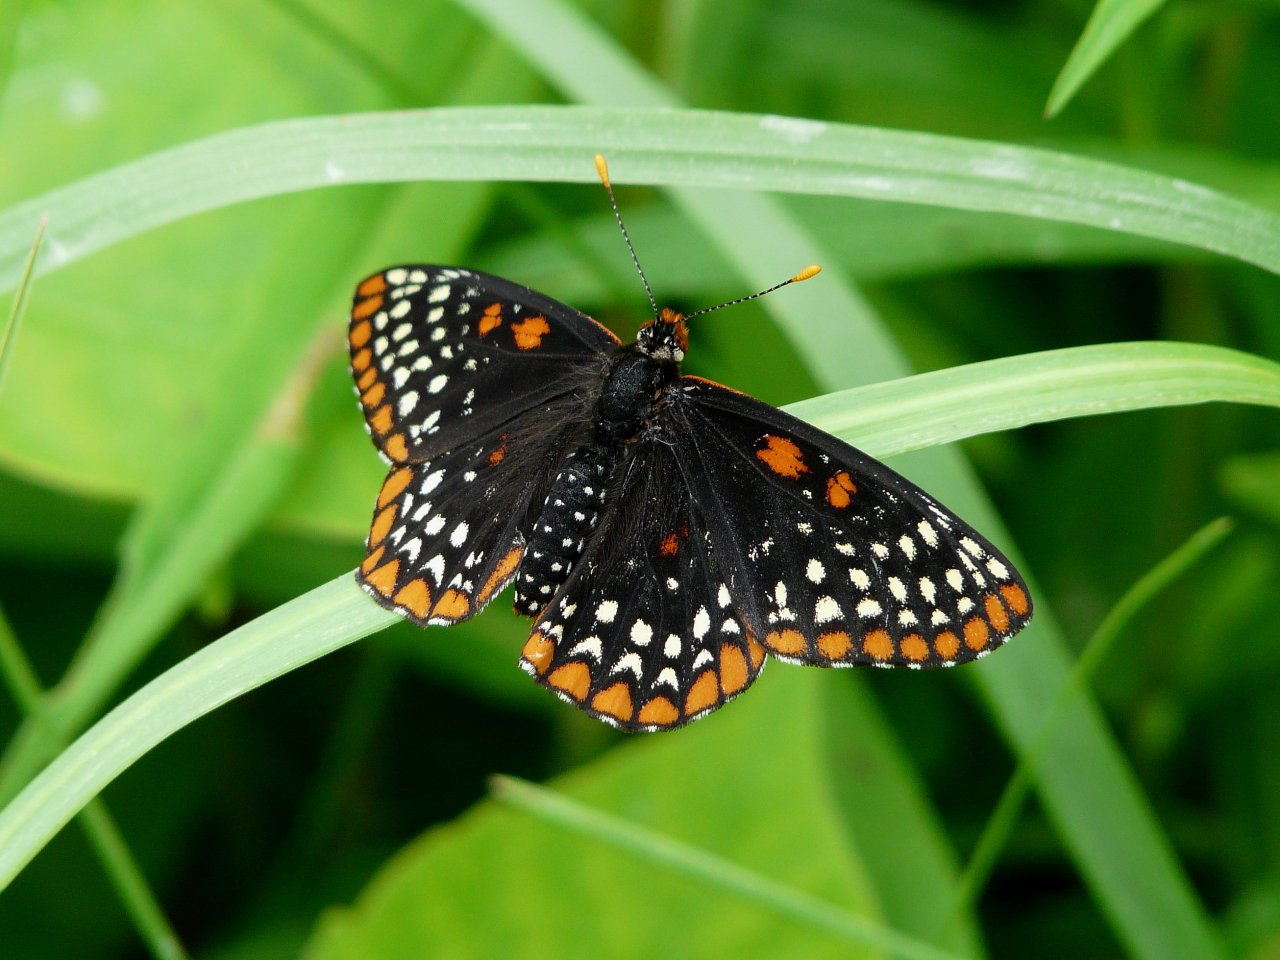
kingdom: Animalia
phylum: Arthropoda
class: Insecta
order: Lepidoptera
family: Nymphalidae
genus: Euphydryas
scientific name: Euphydryas phaeton
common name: Baltimore Checkerspot
